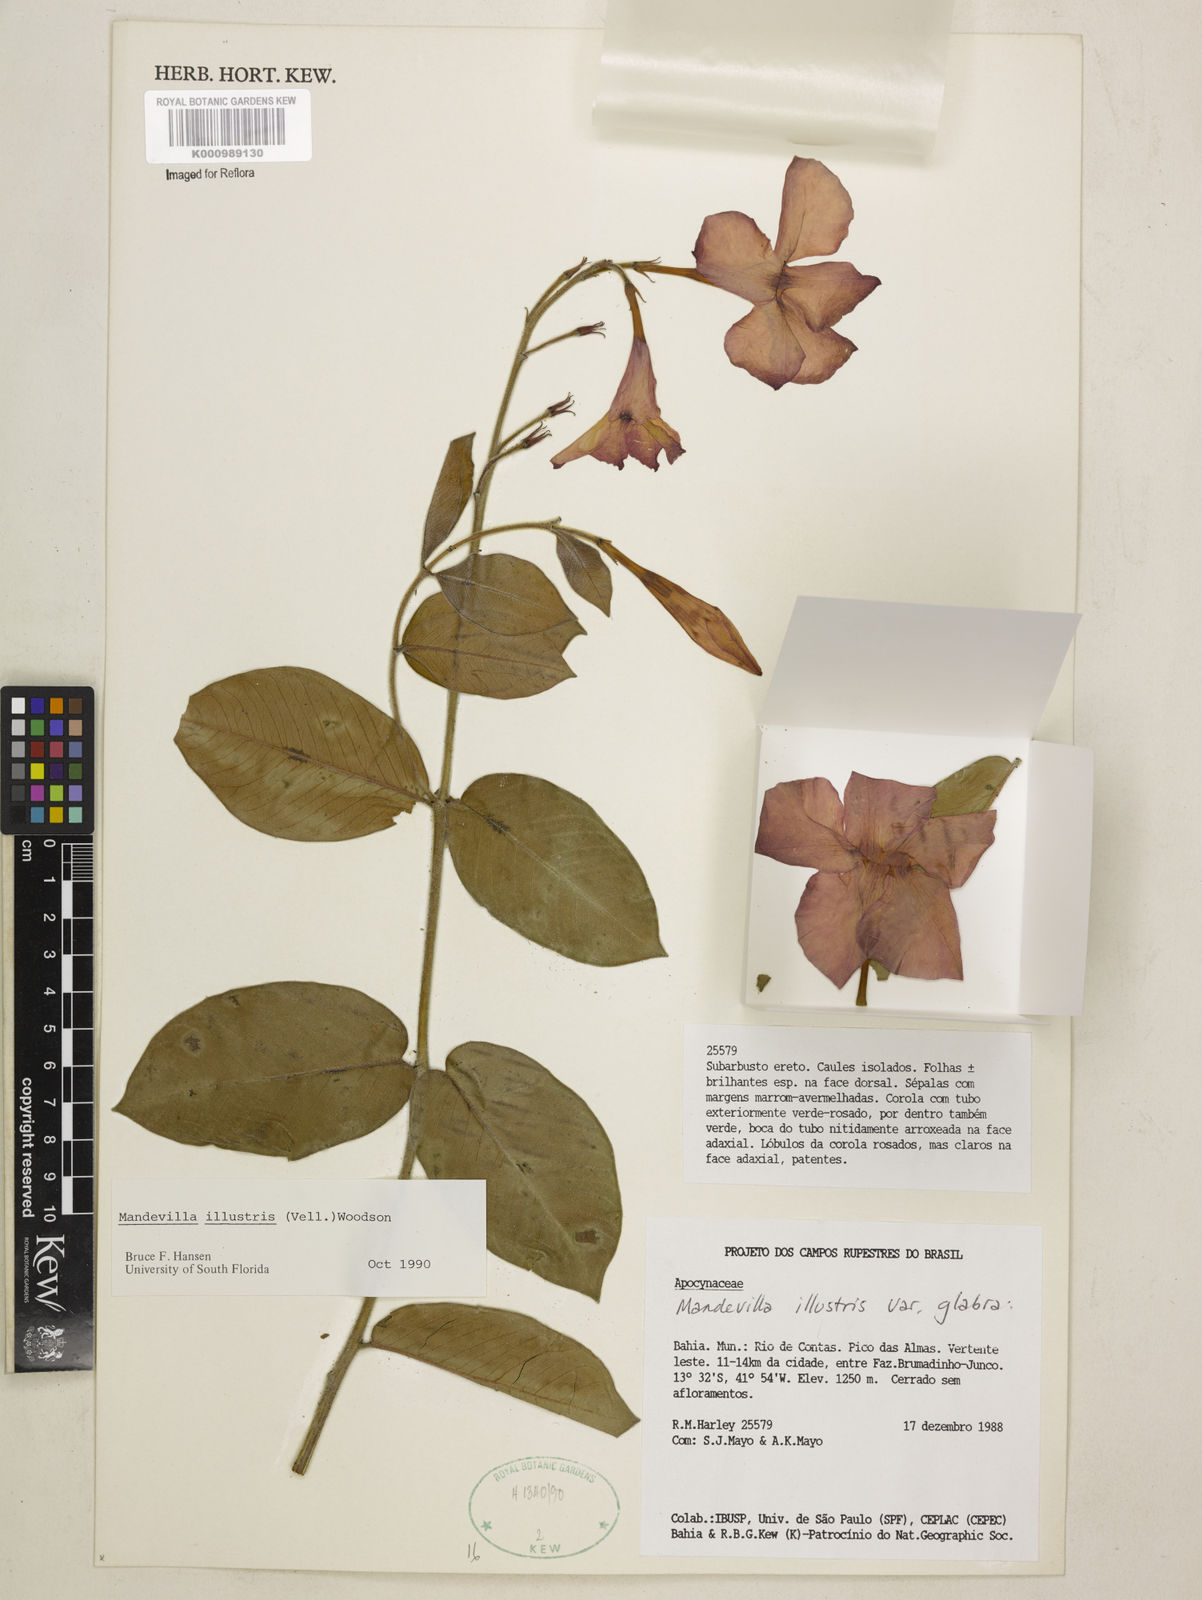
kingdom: Plantae
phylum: Tracheophyta
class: Magnoliopsida
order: Gentianales
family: Apocynaceae
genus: Mandevilla
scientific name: Mandevilla
